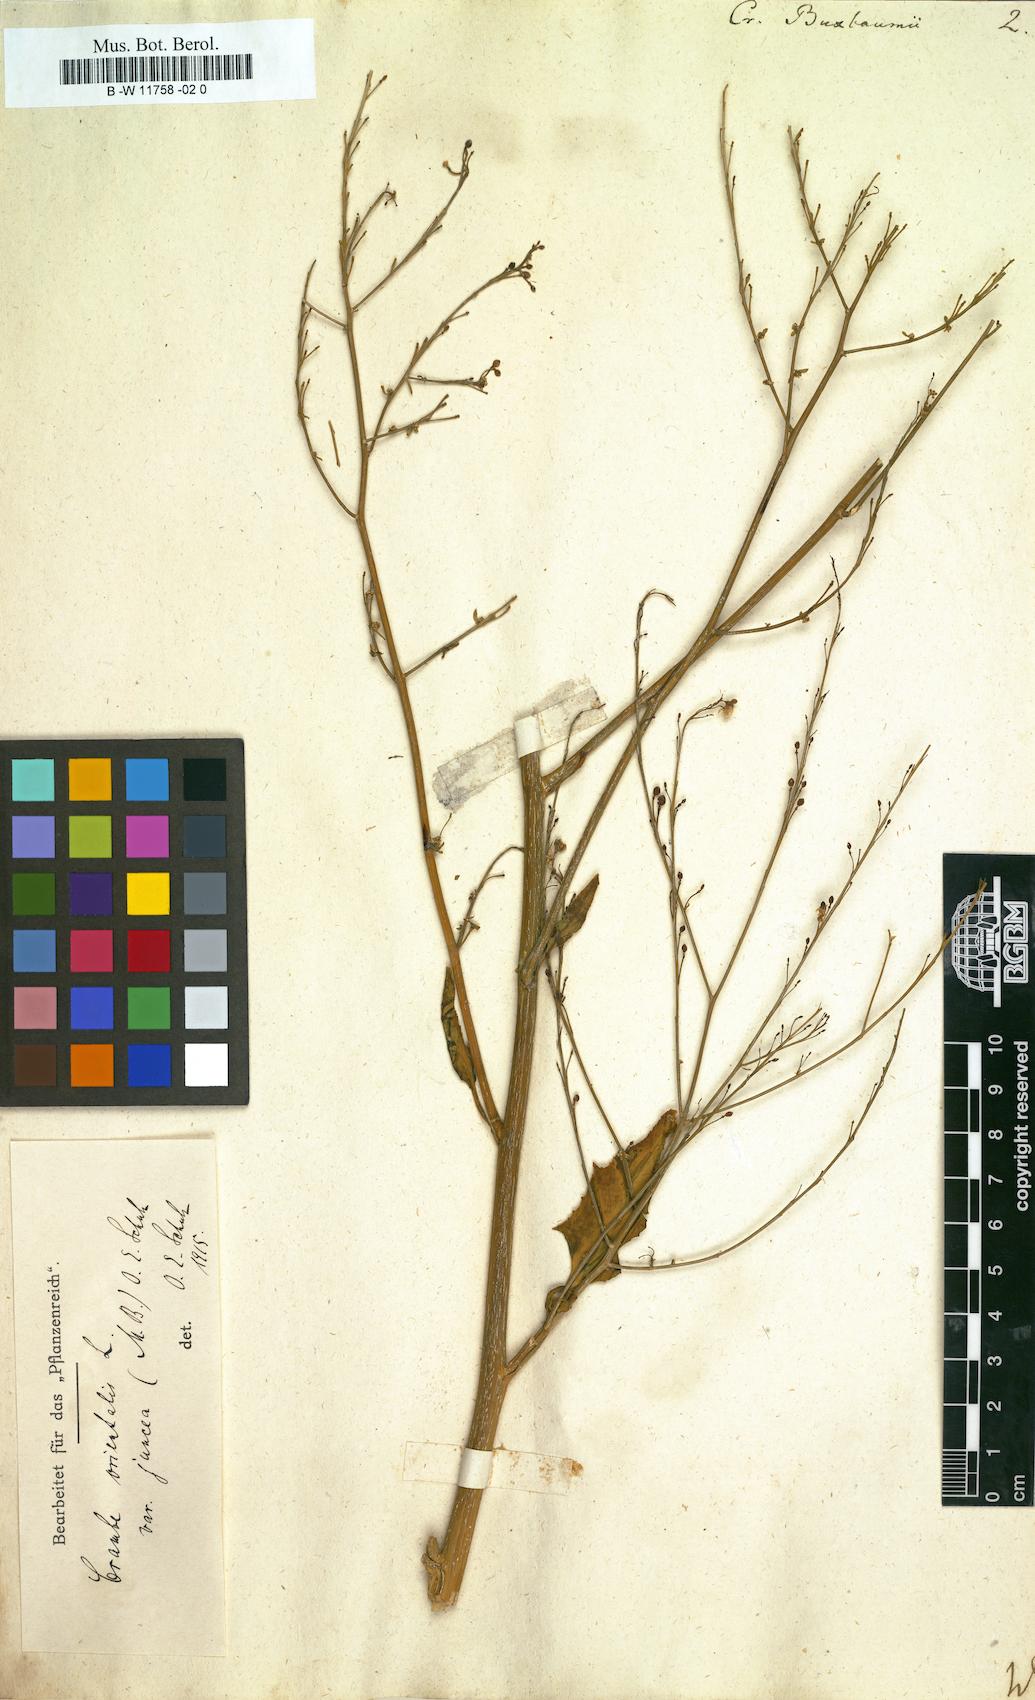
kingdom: Plantae
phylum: Tracheophyta
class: Magnoliopsida
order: Brassicales
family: Brassicaceae
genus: Crambe
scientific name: Crambe juncea
